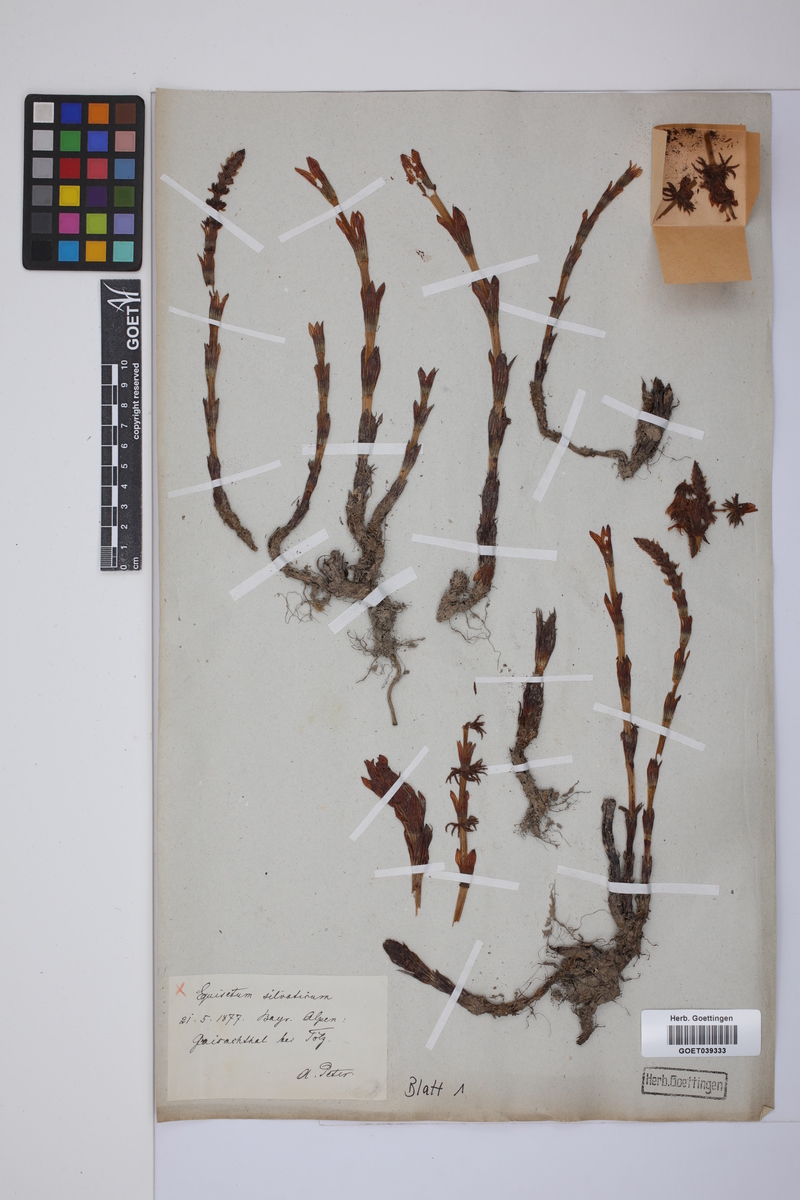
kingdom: Plantae
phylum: Tracheophyta
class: Polypodiopsida
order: Equisetales
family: Equisetaceae
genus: Equisetum
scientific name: Equisetum sylvaticum
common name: Wood horsetail
